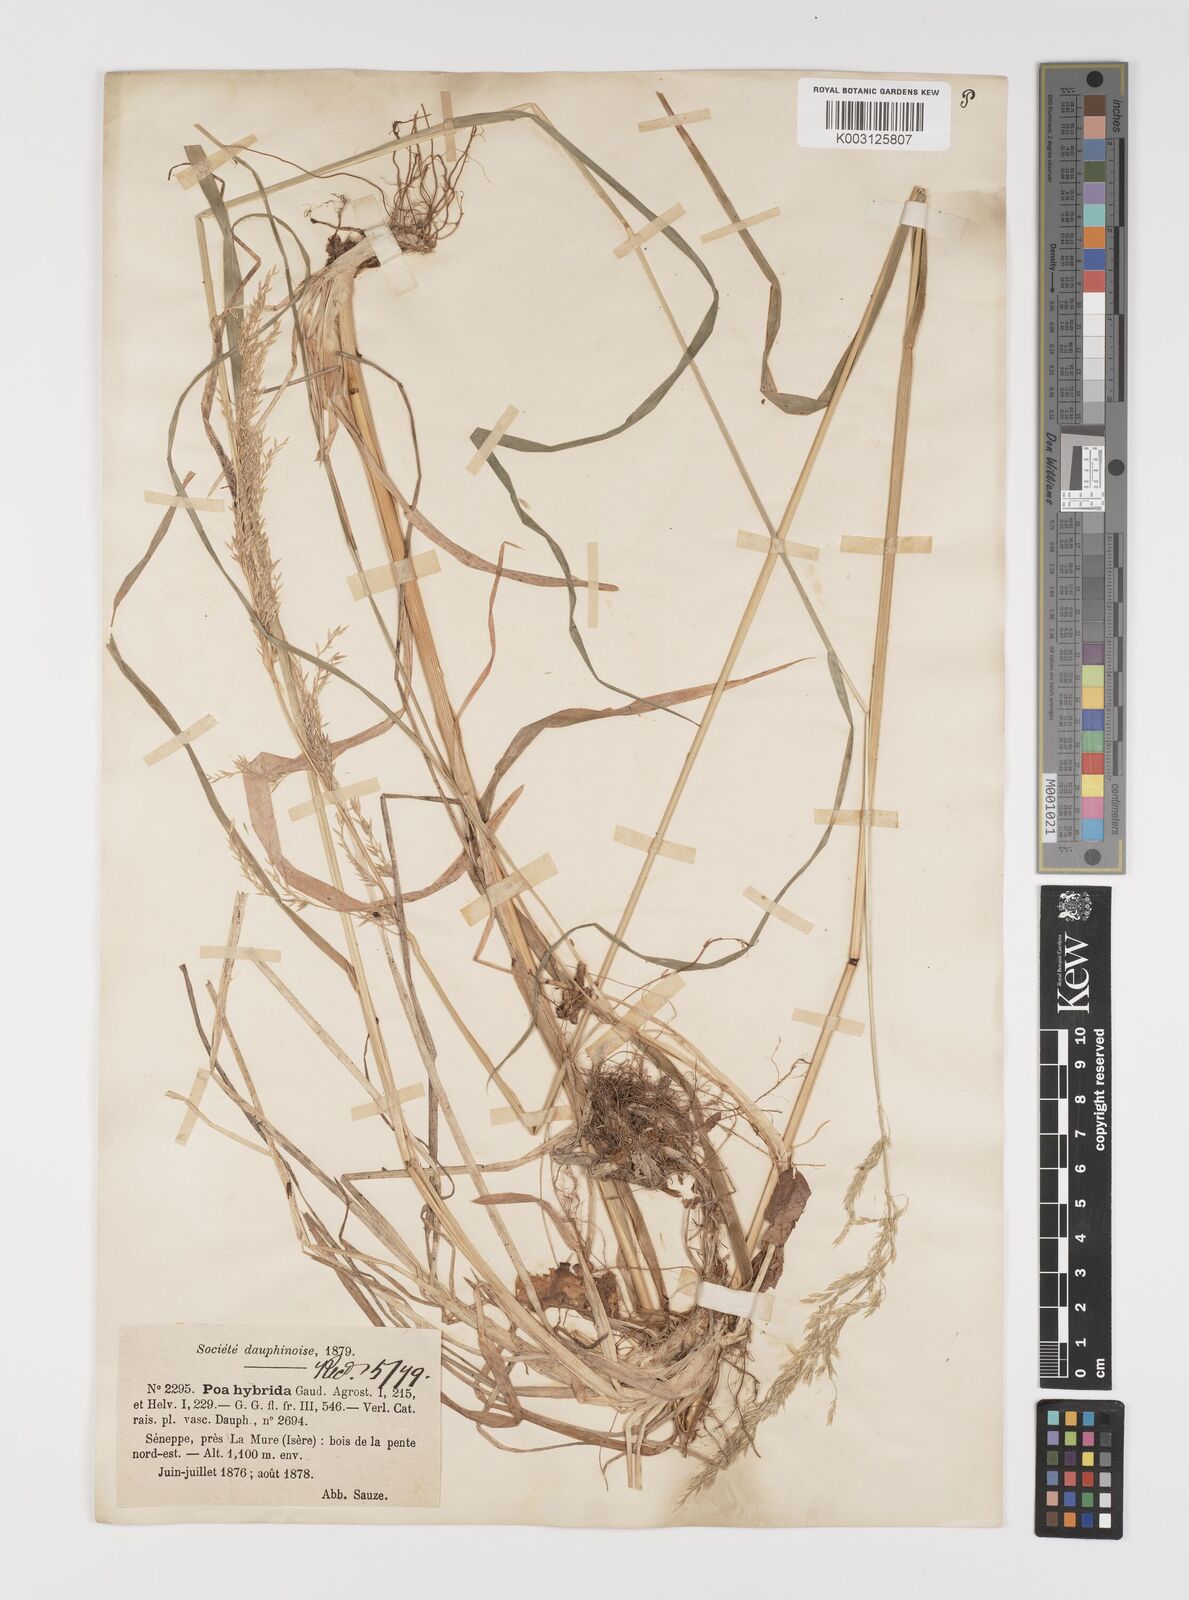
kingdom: Plantae
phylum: Tracheophyta
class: Liliopsida
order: Poales
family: Poaceae
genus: Poa
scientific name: Poa hybrida
